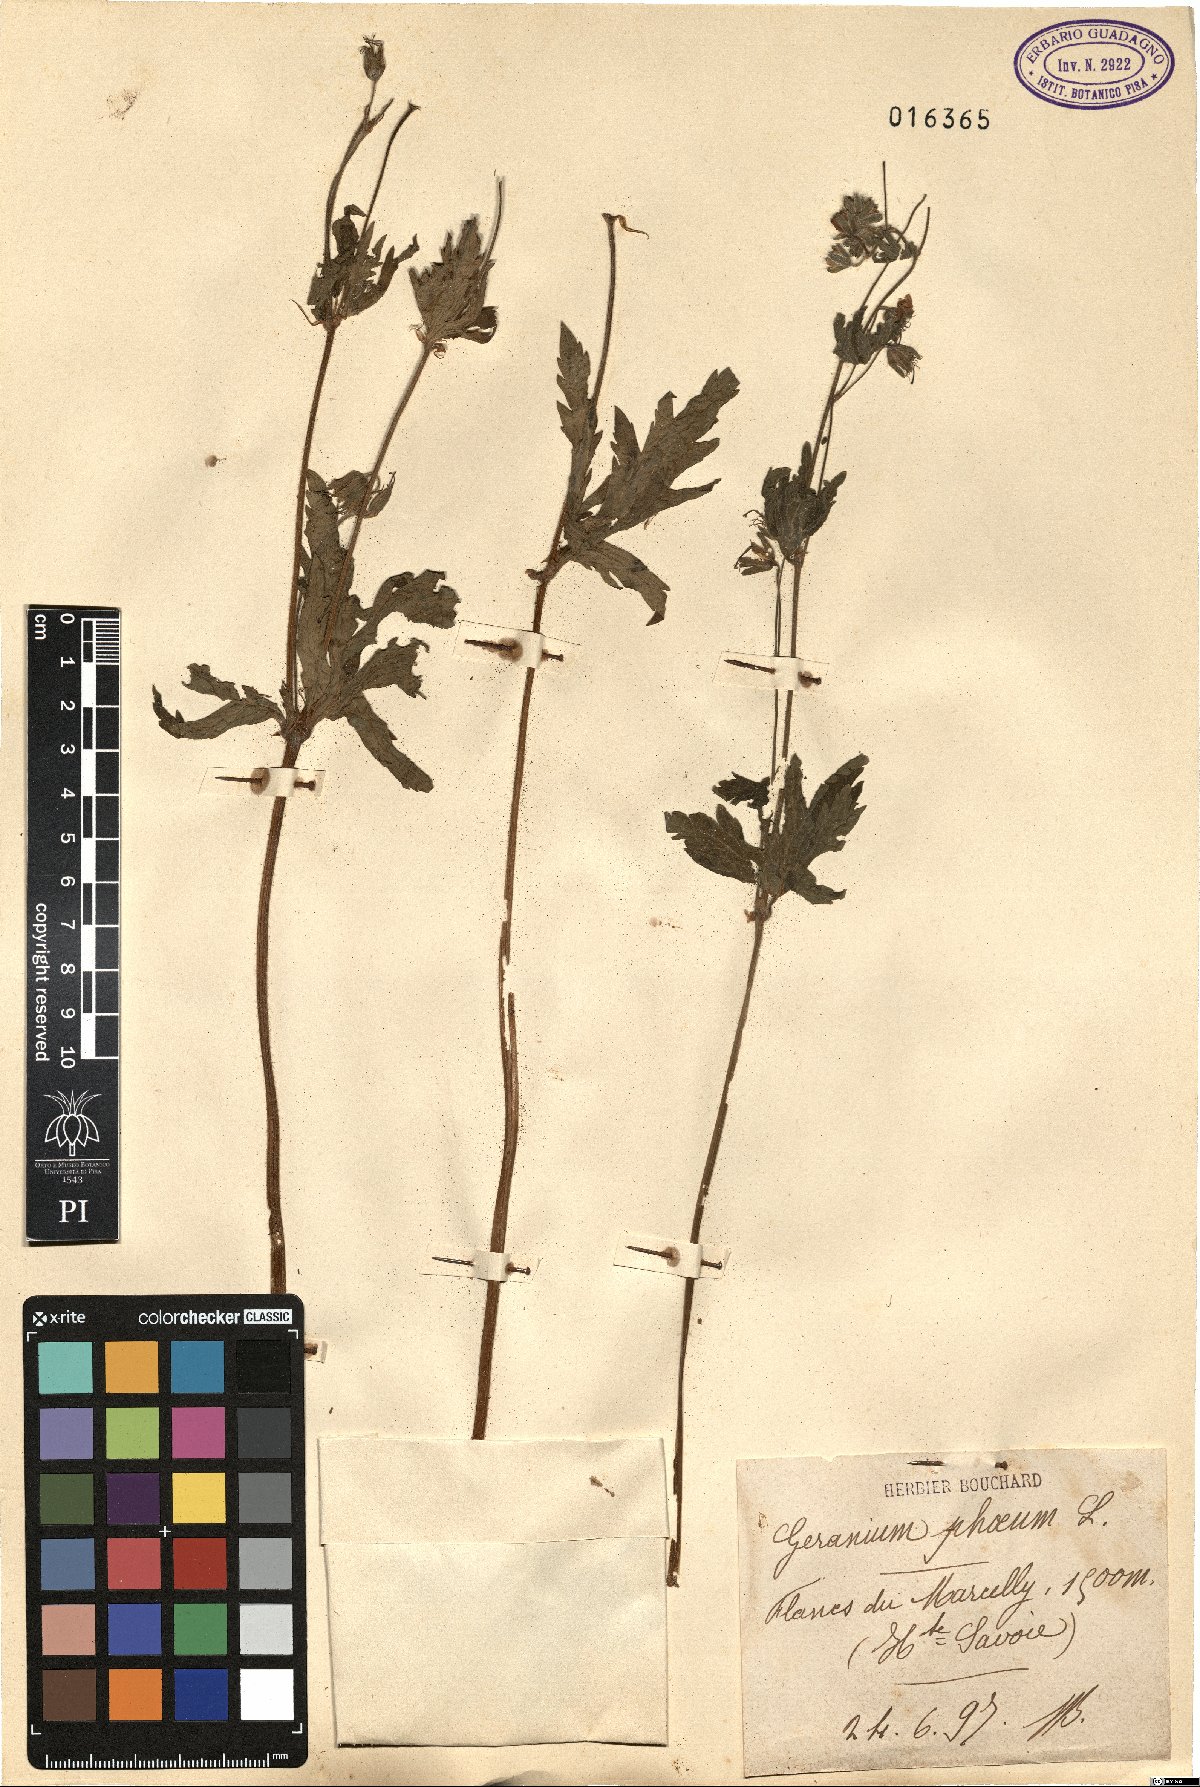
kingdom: Plantae
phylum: Tracheophyta
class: Magnoliopsida
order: Geraniales
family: Geraniaceae
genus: Geranium
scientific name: Geranium phaeum
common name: Dusky crane's-bill
